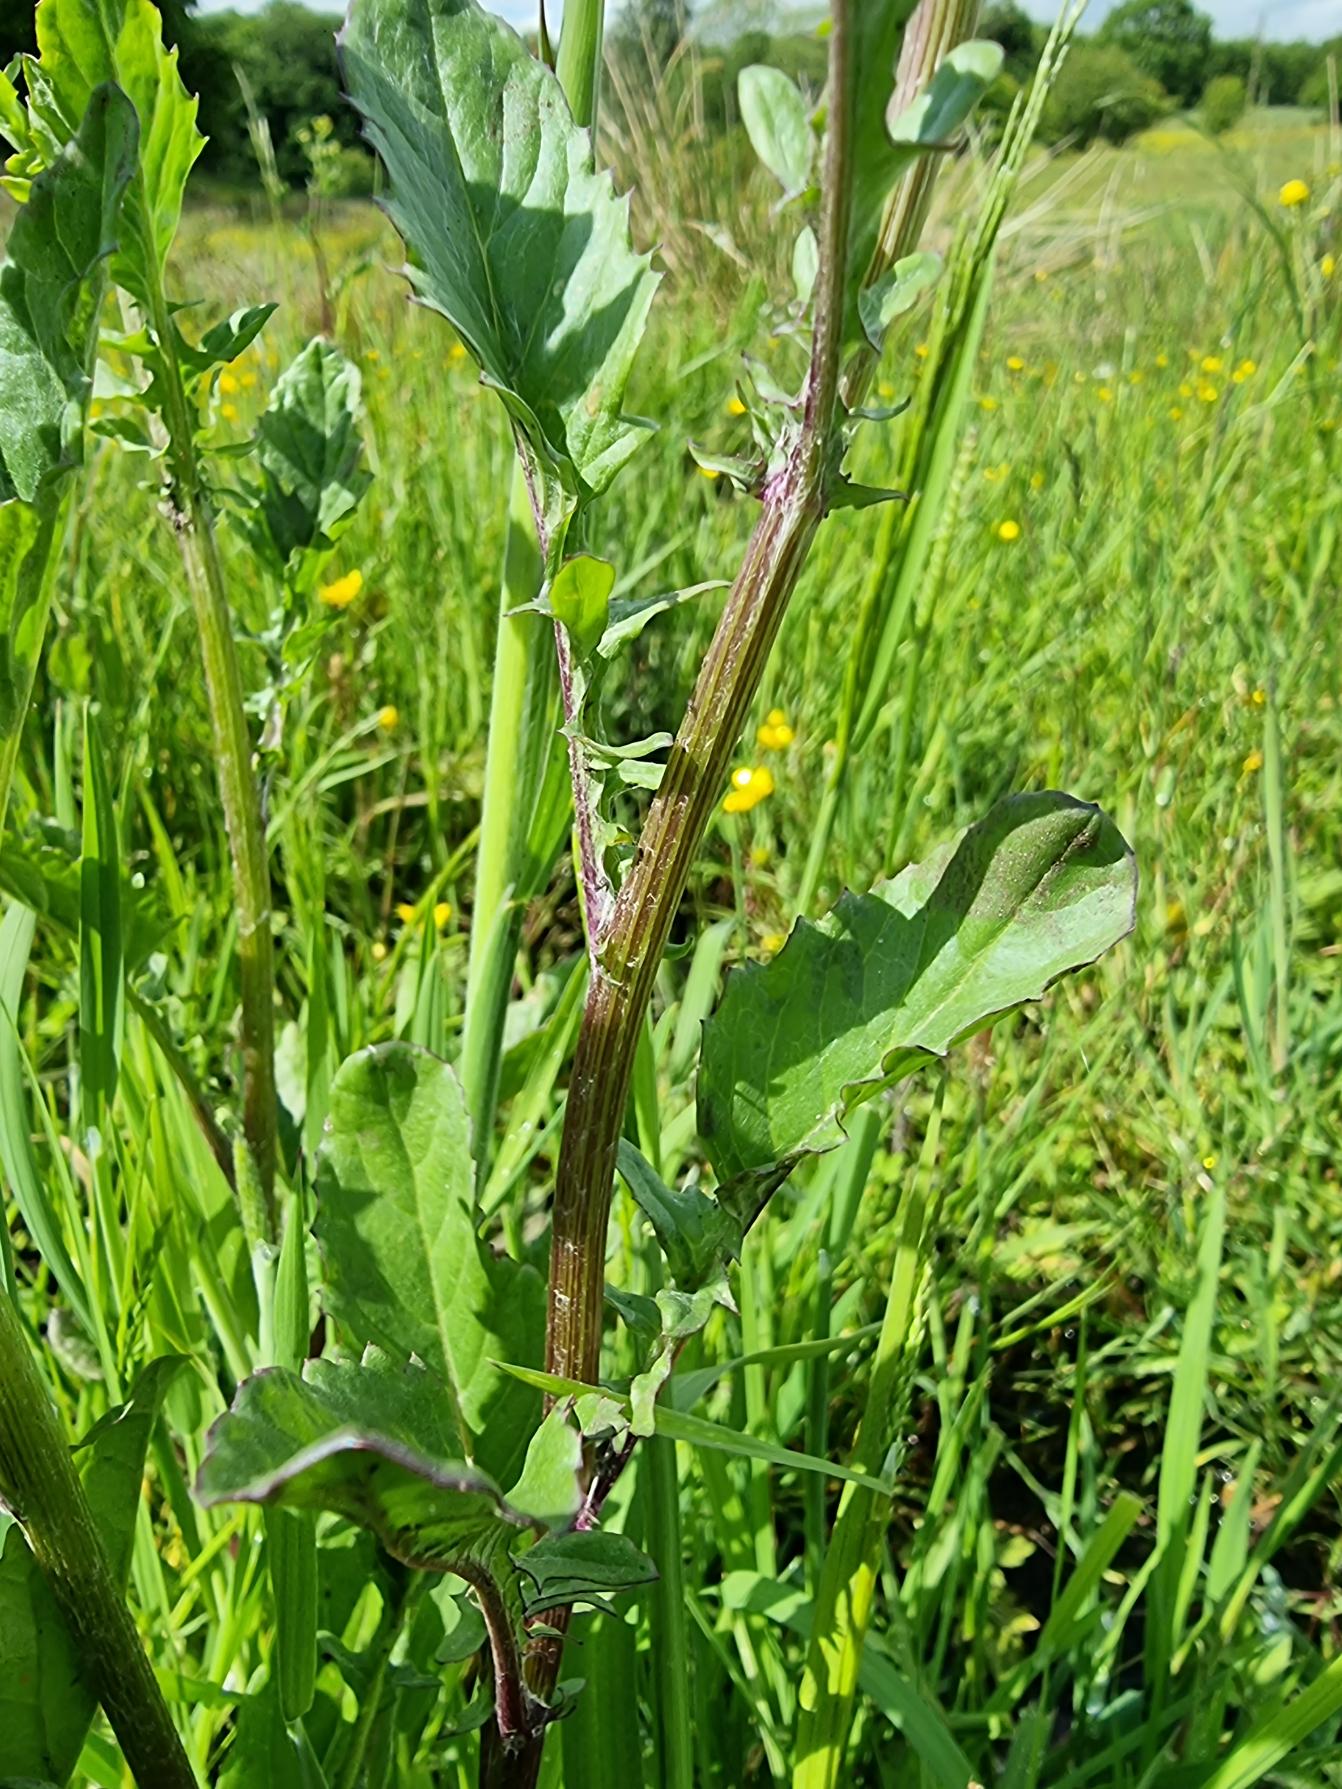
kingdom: Plantae
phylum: Tracheophyta
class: Magnoliopsida
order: Asterales
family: Asteraceae
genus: Jacobaea
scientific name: Jacobaea aquatica
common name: Vand-brandbæger
